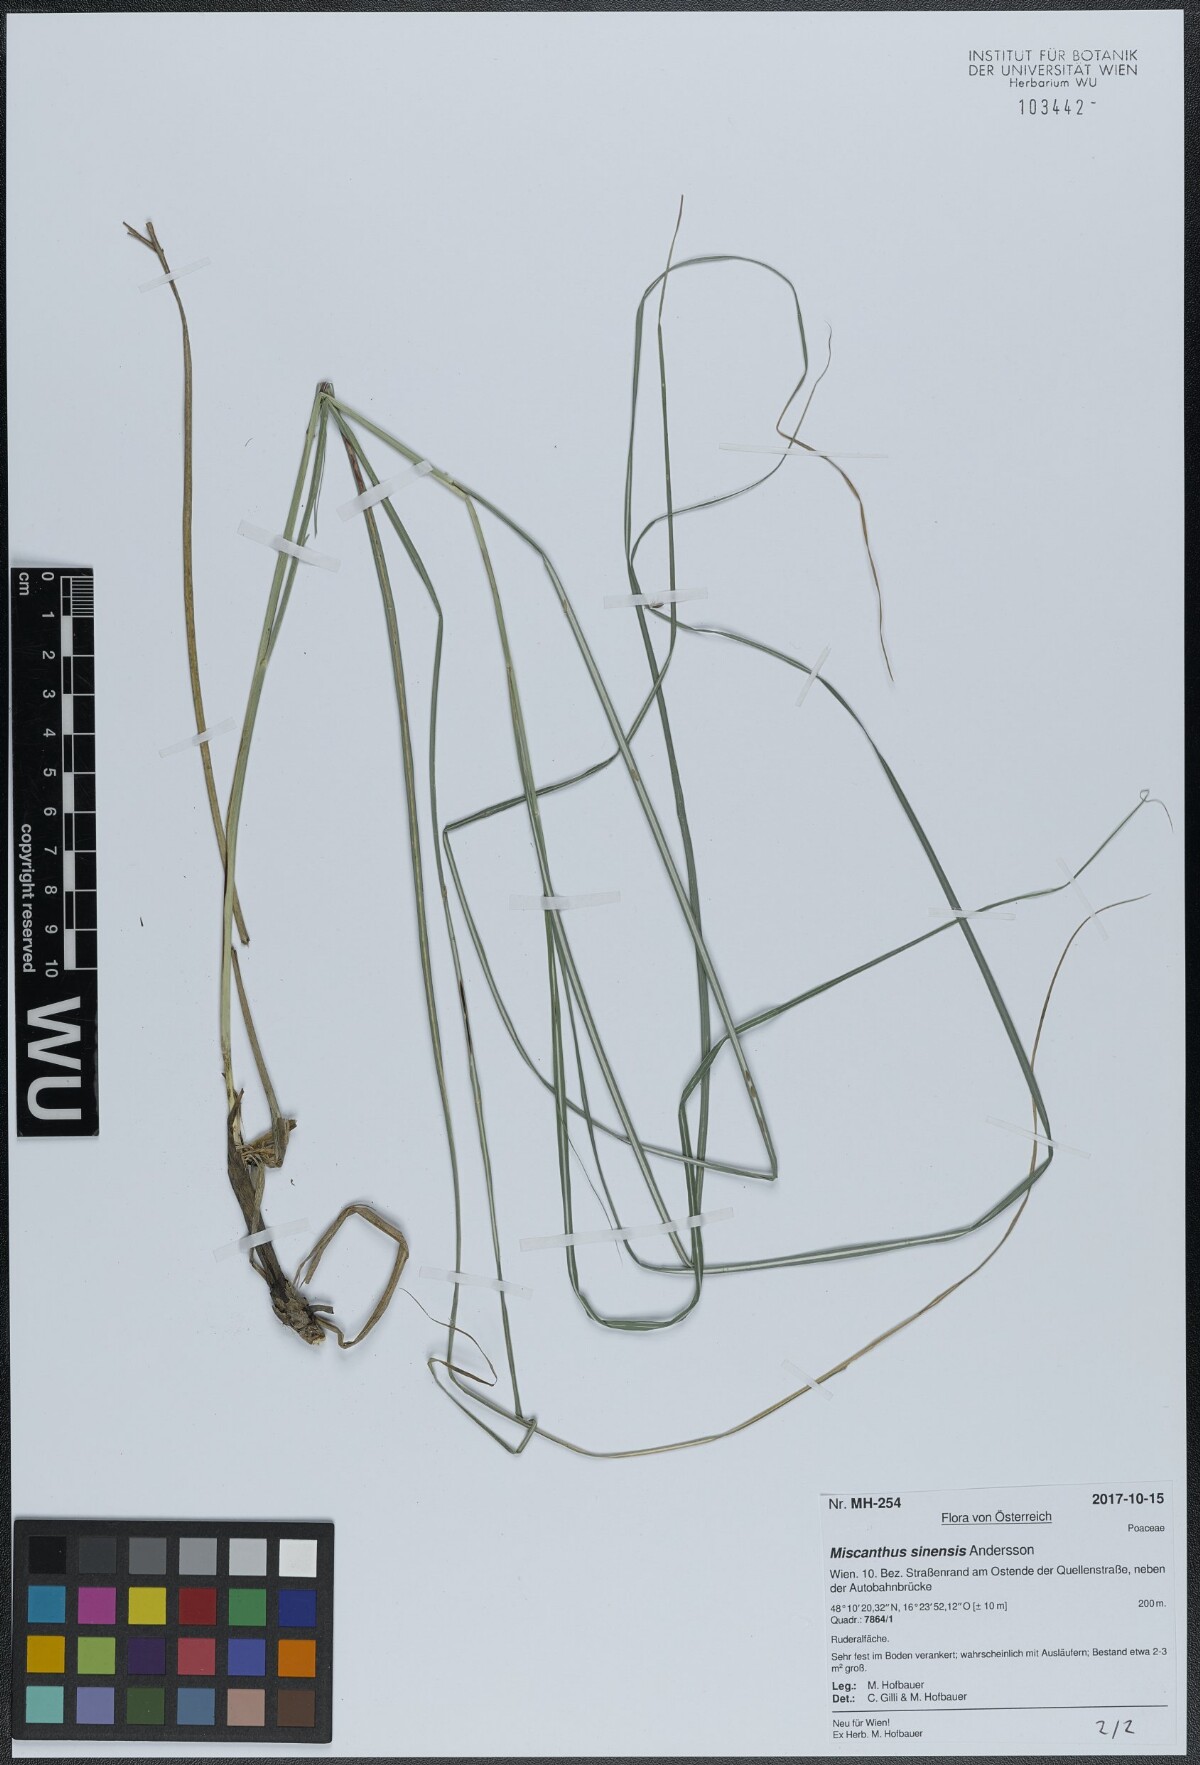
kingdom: Plantae
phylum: Tracheophyta
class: Liliopsida
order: Poales
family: Poaceae
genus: Miscanthus
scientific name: Miscanthus sinensis
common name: Chinese silvergrass
